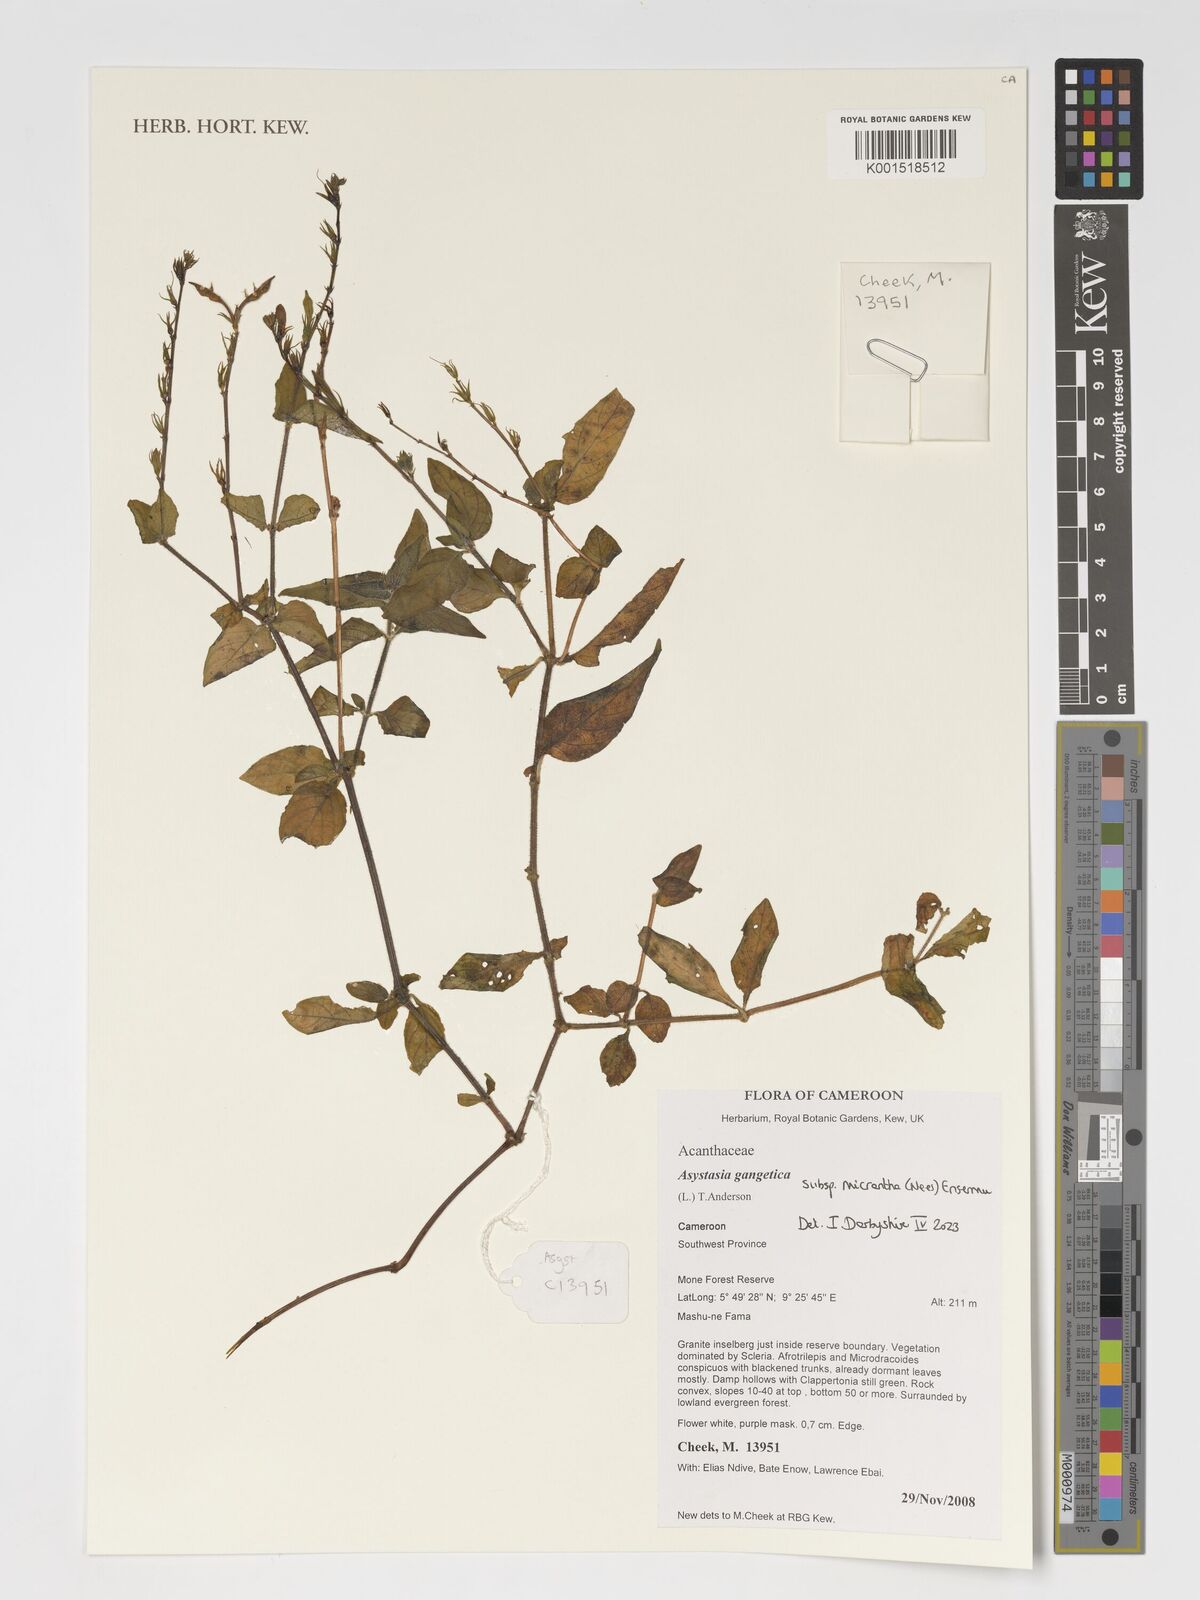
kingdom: Plantae
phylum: Tracheophyta
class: Magnoliopsida
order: Lamiales
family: Acanthaceae
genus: Asystasia
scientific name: Asystasia intrusa
